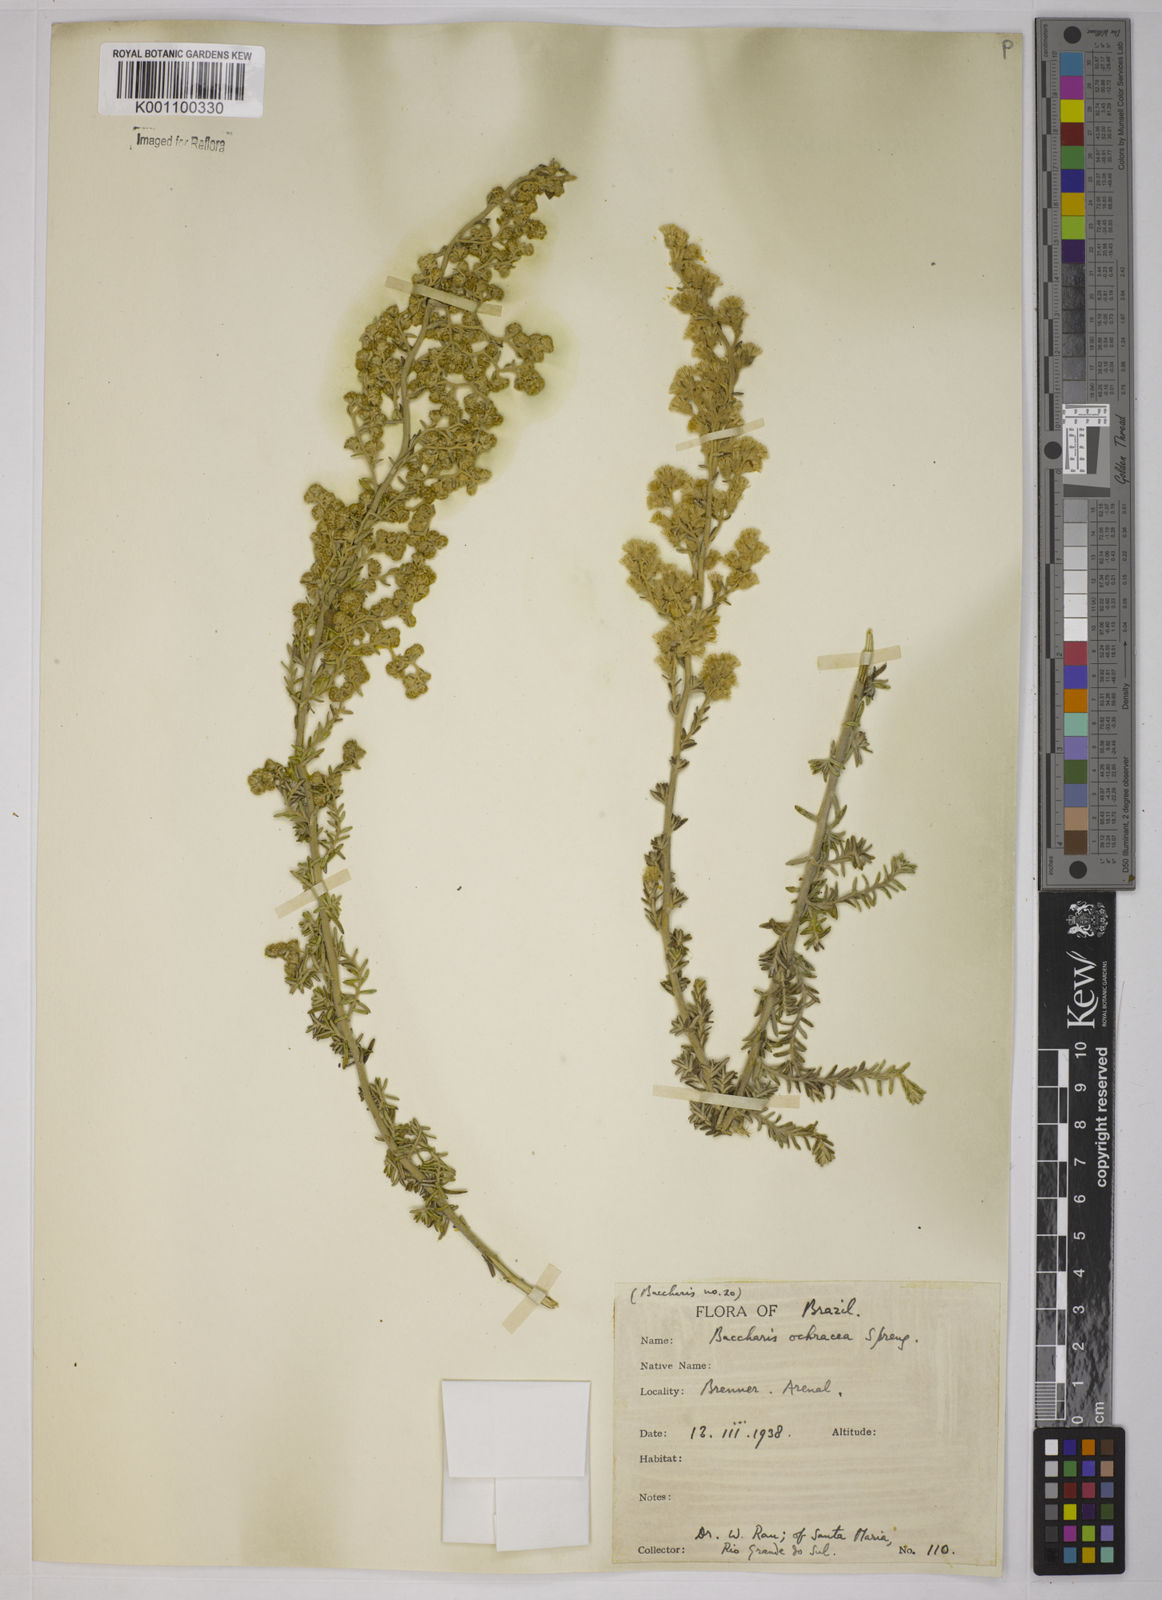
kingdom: Plantae
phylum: Tracheophyta
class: Magnoliopsida
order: Asterales
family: Asteraceae
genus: Baccharis
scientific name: Baccharis ochracea
